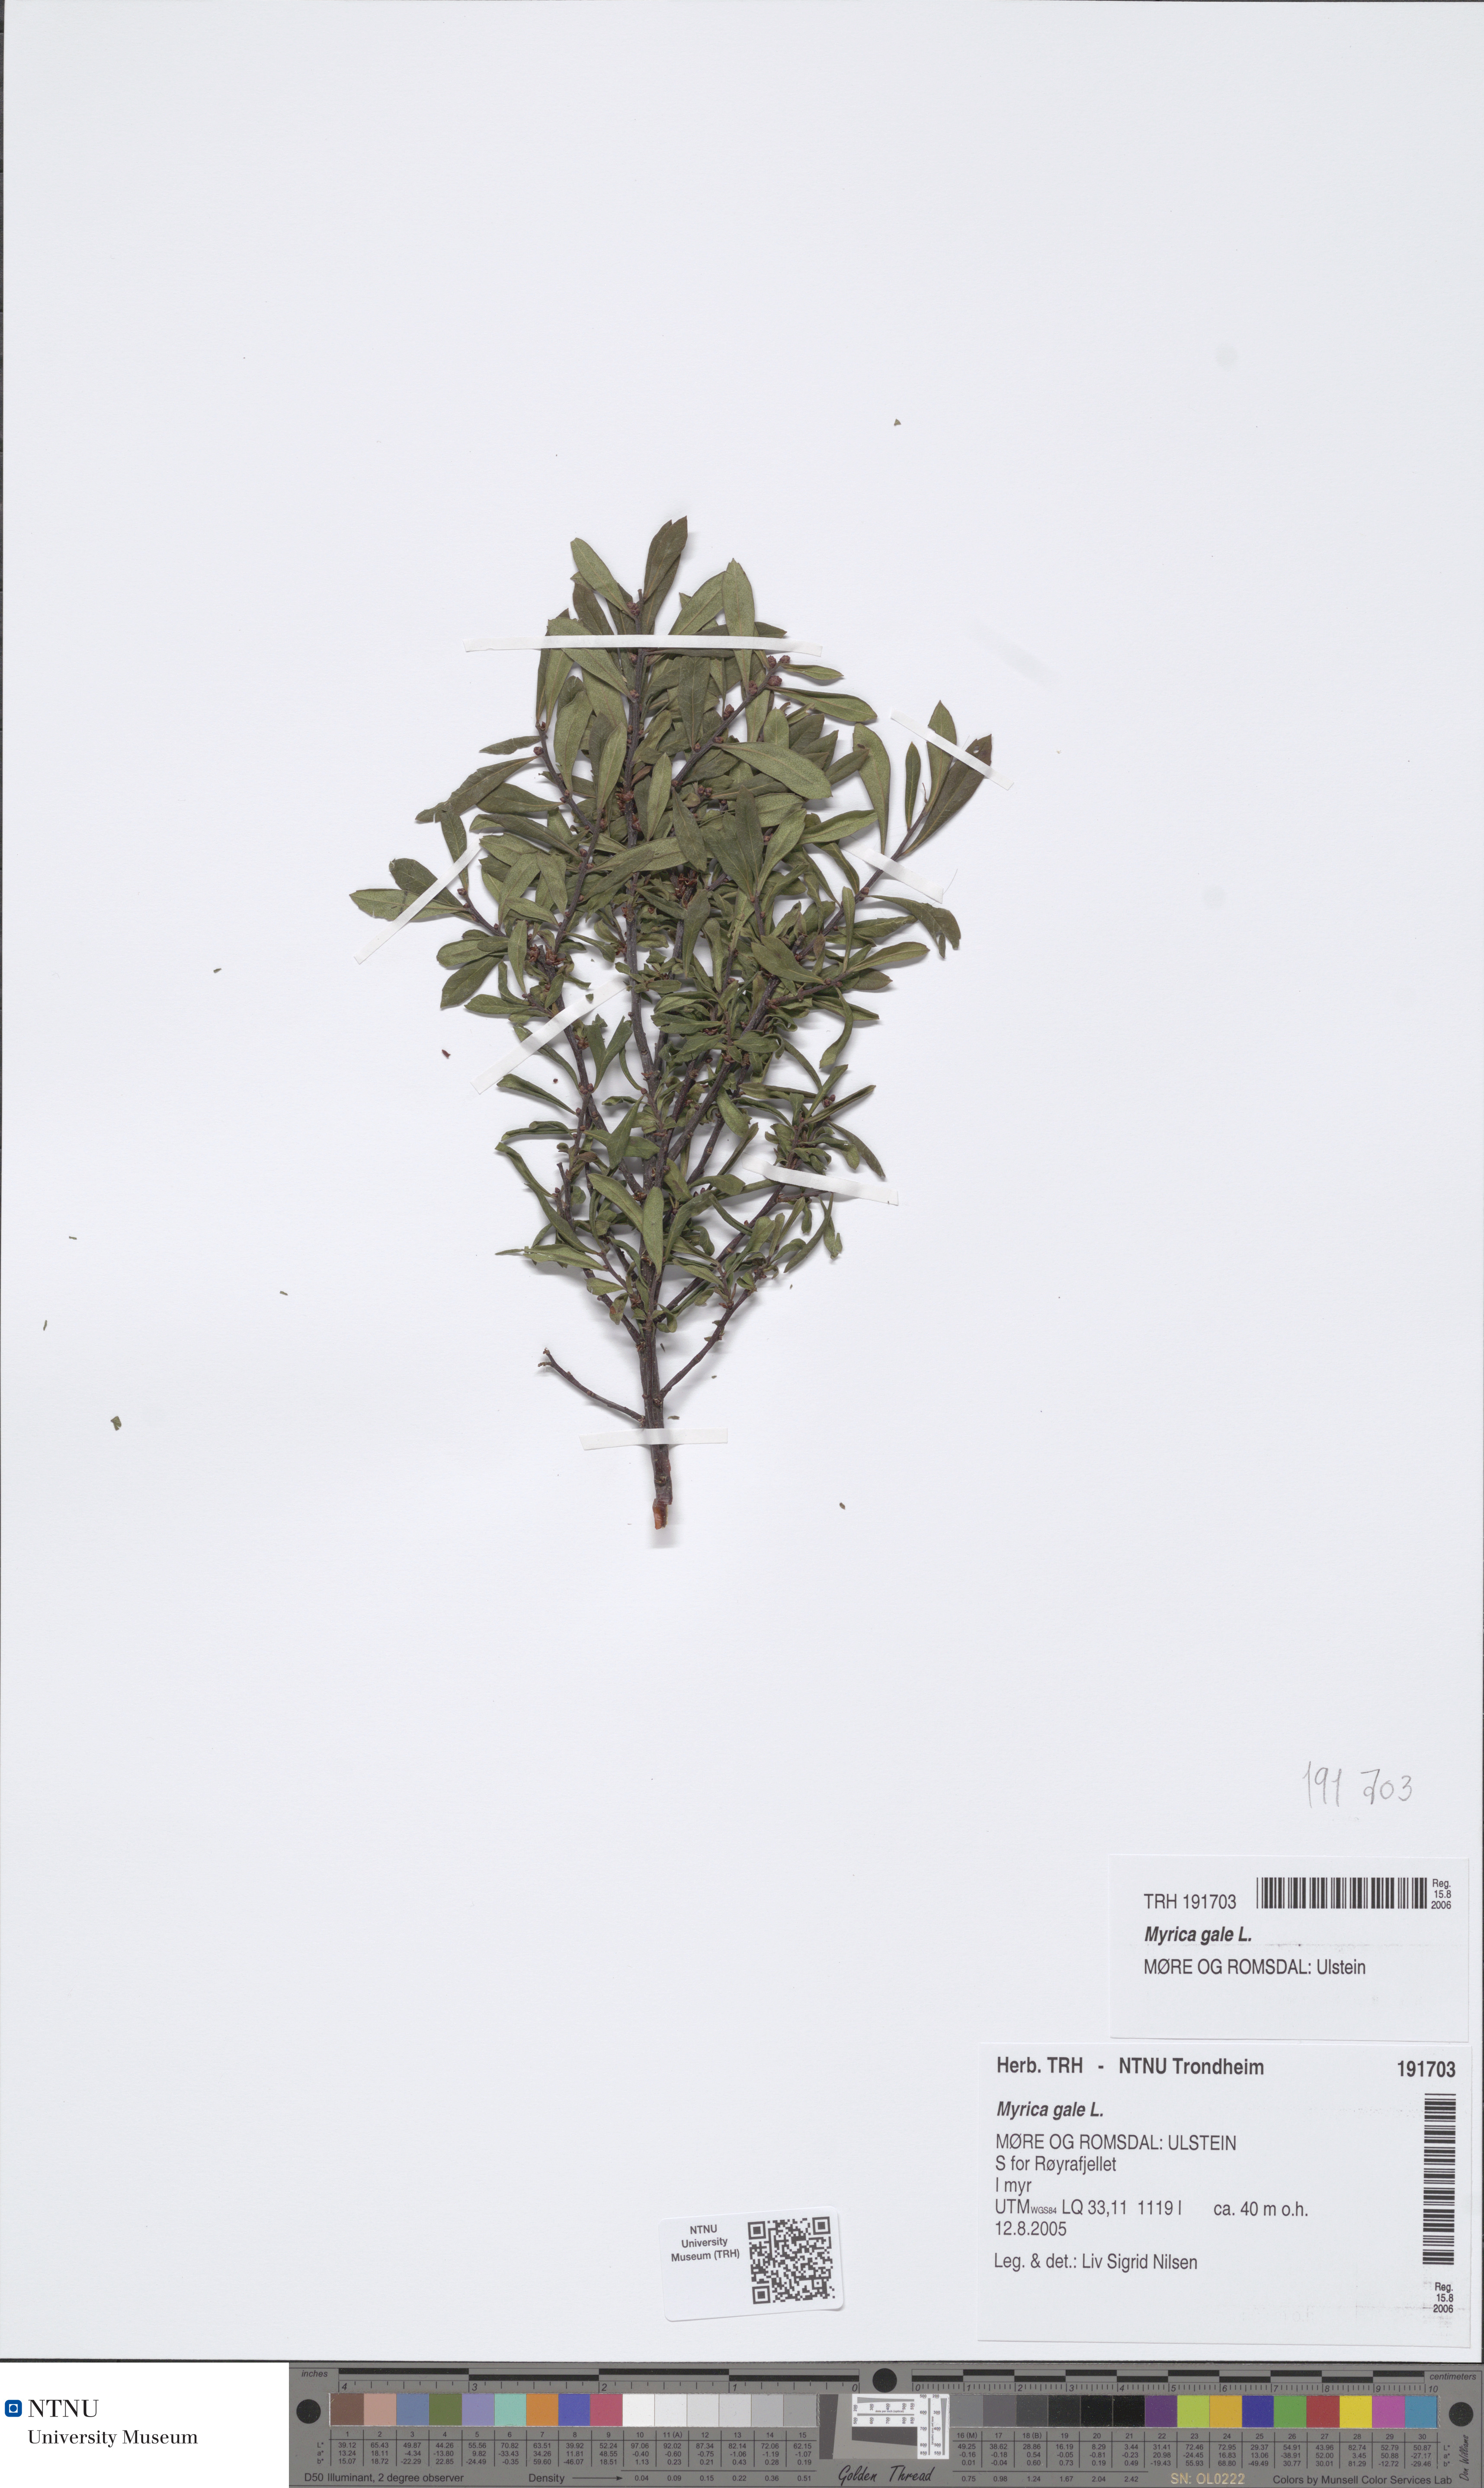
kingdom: Plantae
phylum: Tracheophyta
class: Magnoliopsida
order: Fagales
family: Myricaceae
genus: Myrica
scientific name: Myrica gale
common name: Sweet gale
